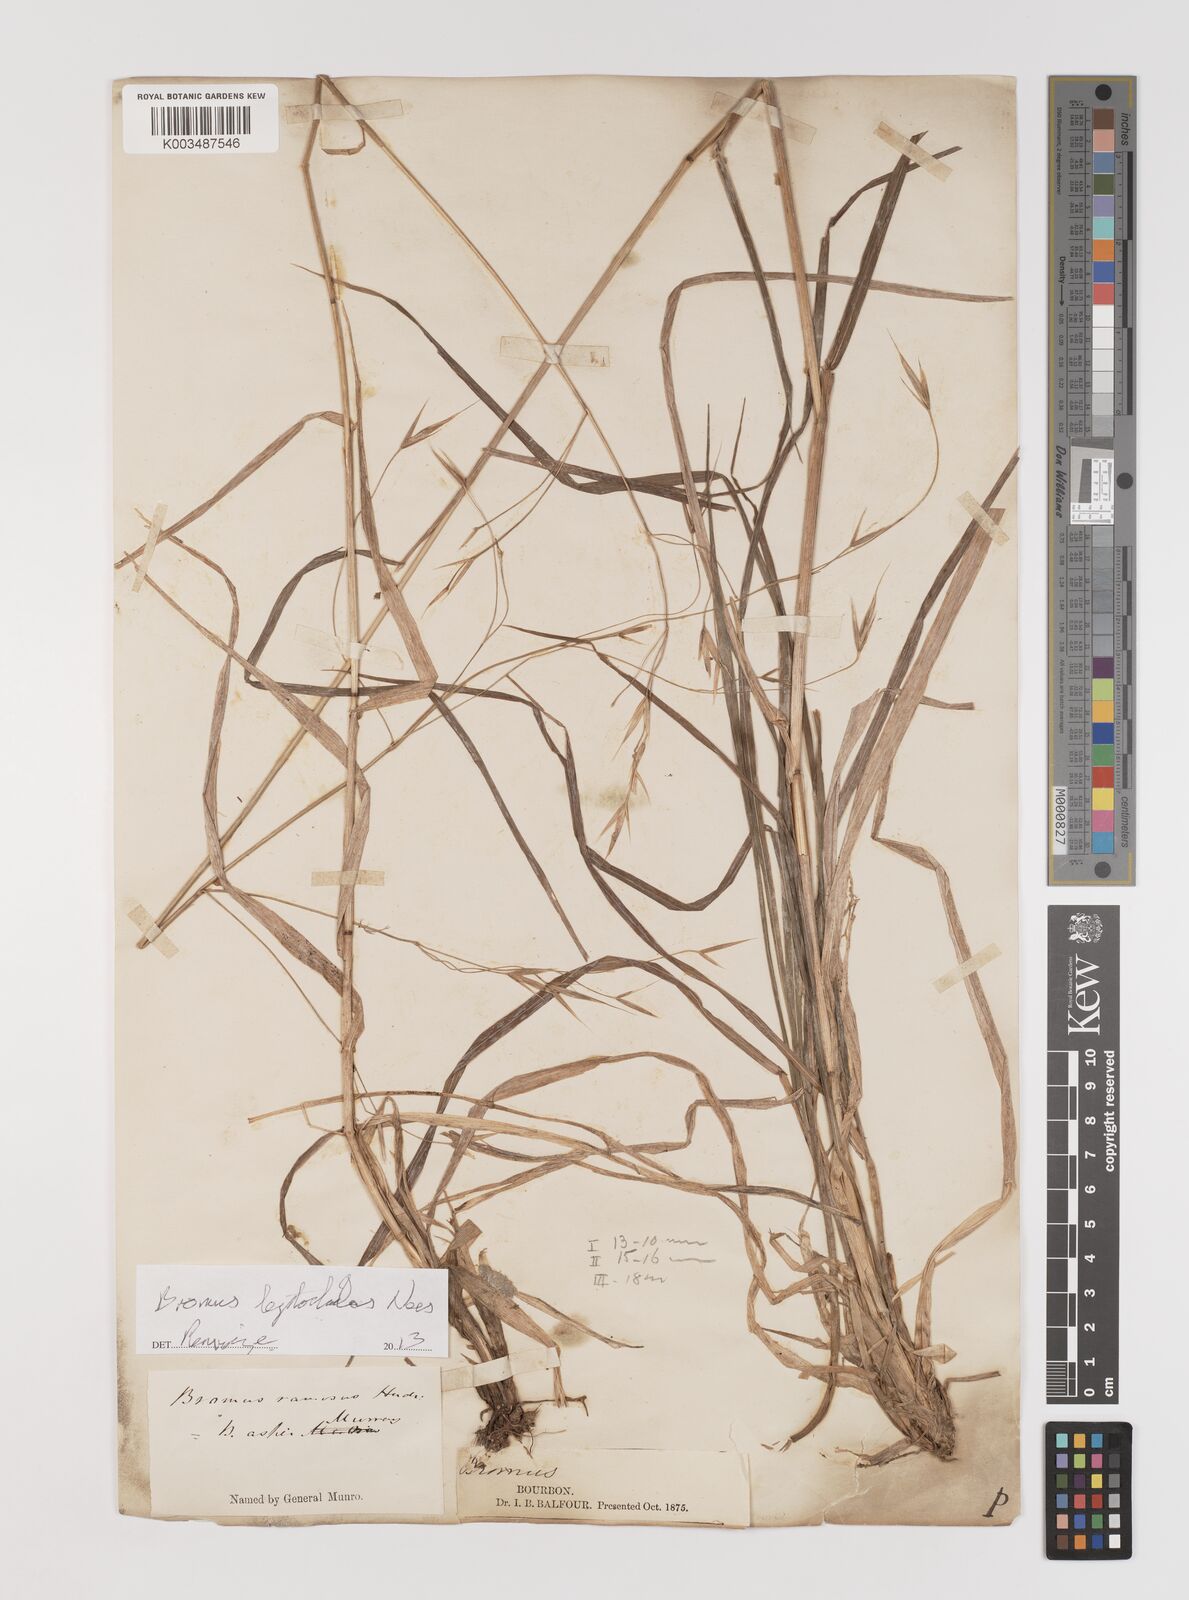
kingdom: Plantae
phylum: Tracheophyta
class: Liliopsida
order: Poales
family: Poaceae
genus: Bromus
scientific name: Bromus leptoclados
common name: Mountain bromegrass
